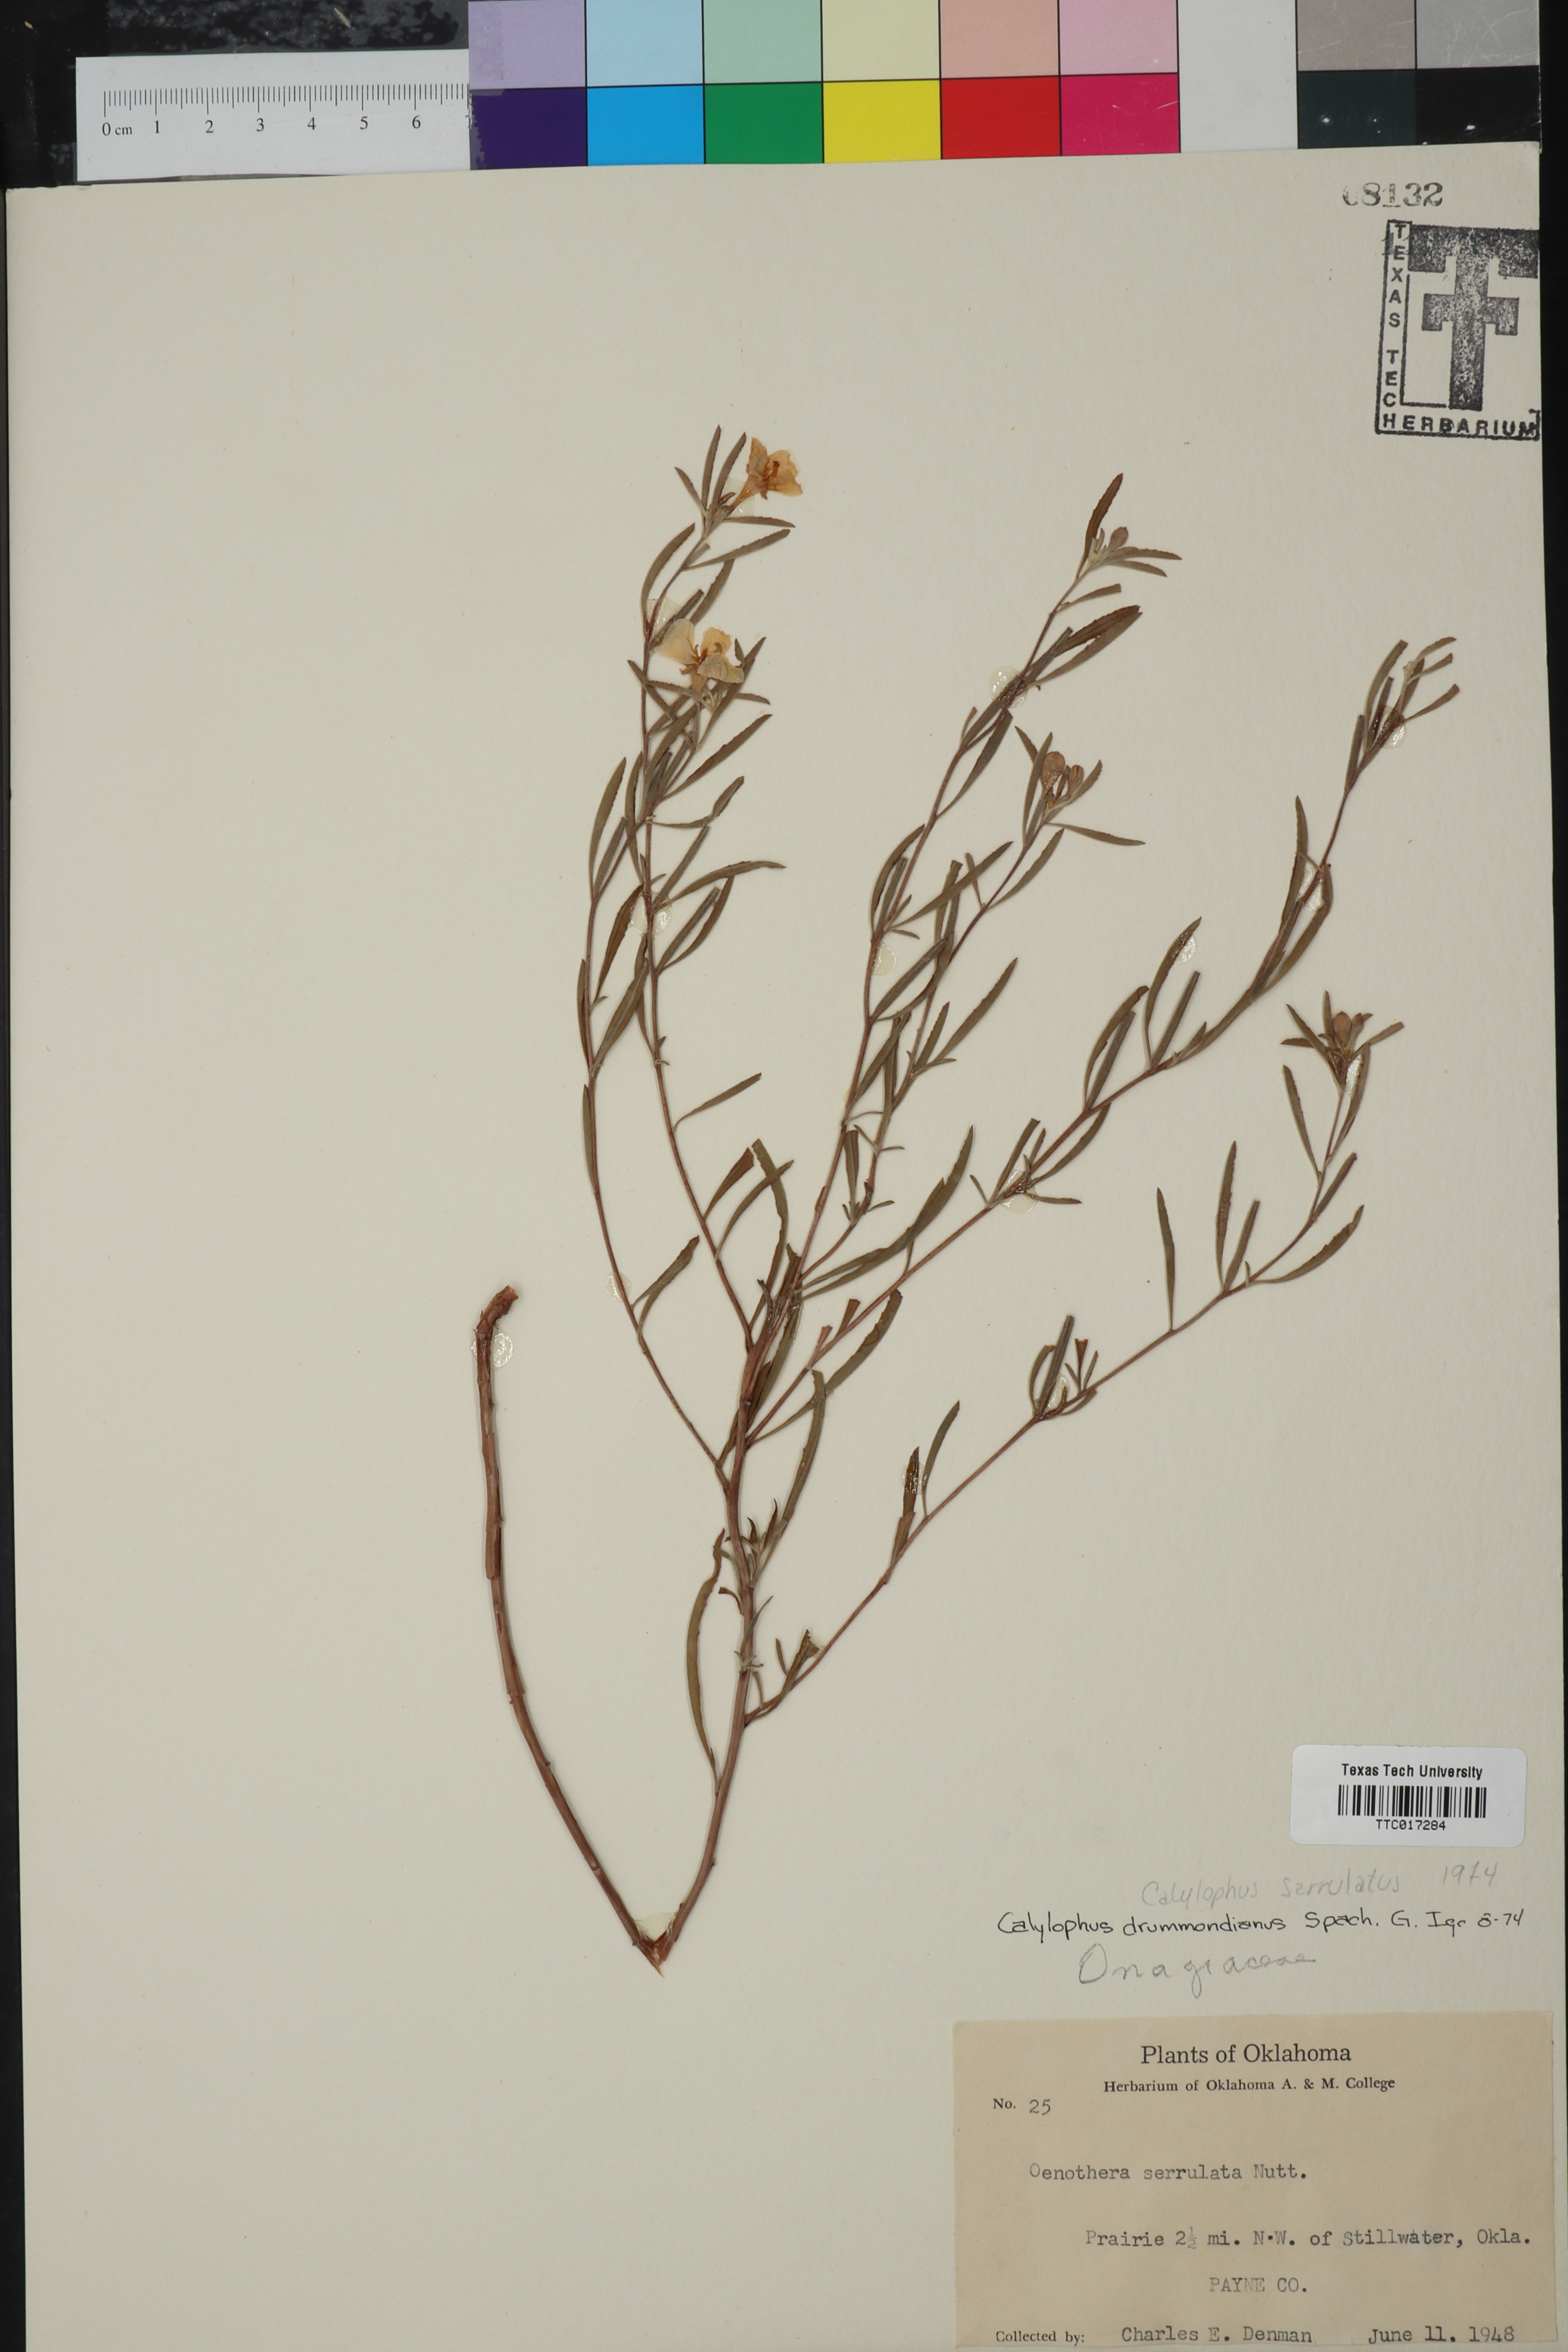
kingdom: Plantae
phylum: Tracheophyta
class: Magnoliopsida
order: Myrtales
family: Onagraceae
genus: Oenothera
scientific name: Oenothera serrulata
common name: Half-shrub calylophus
